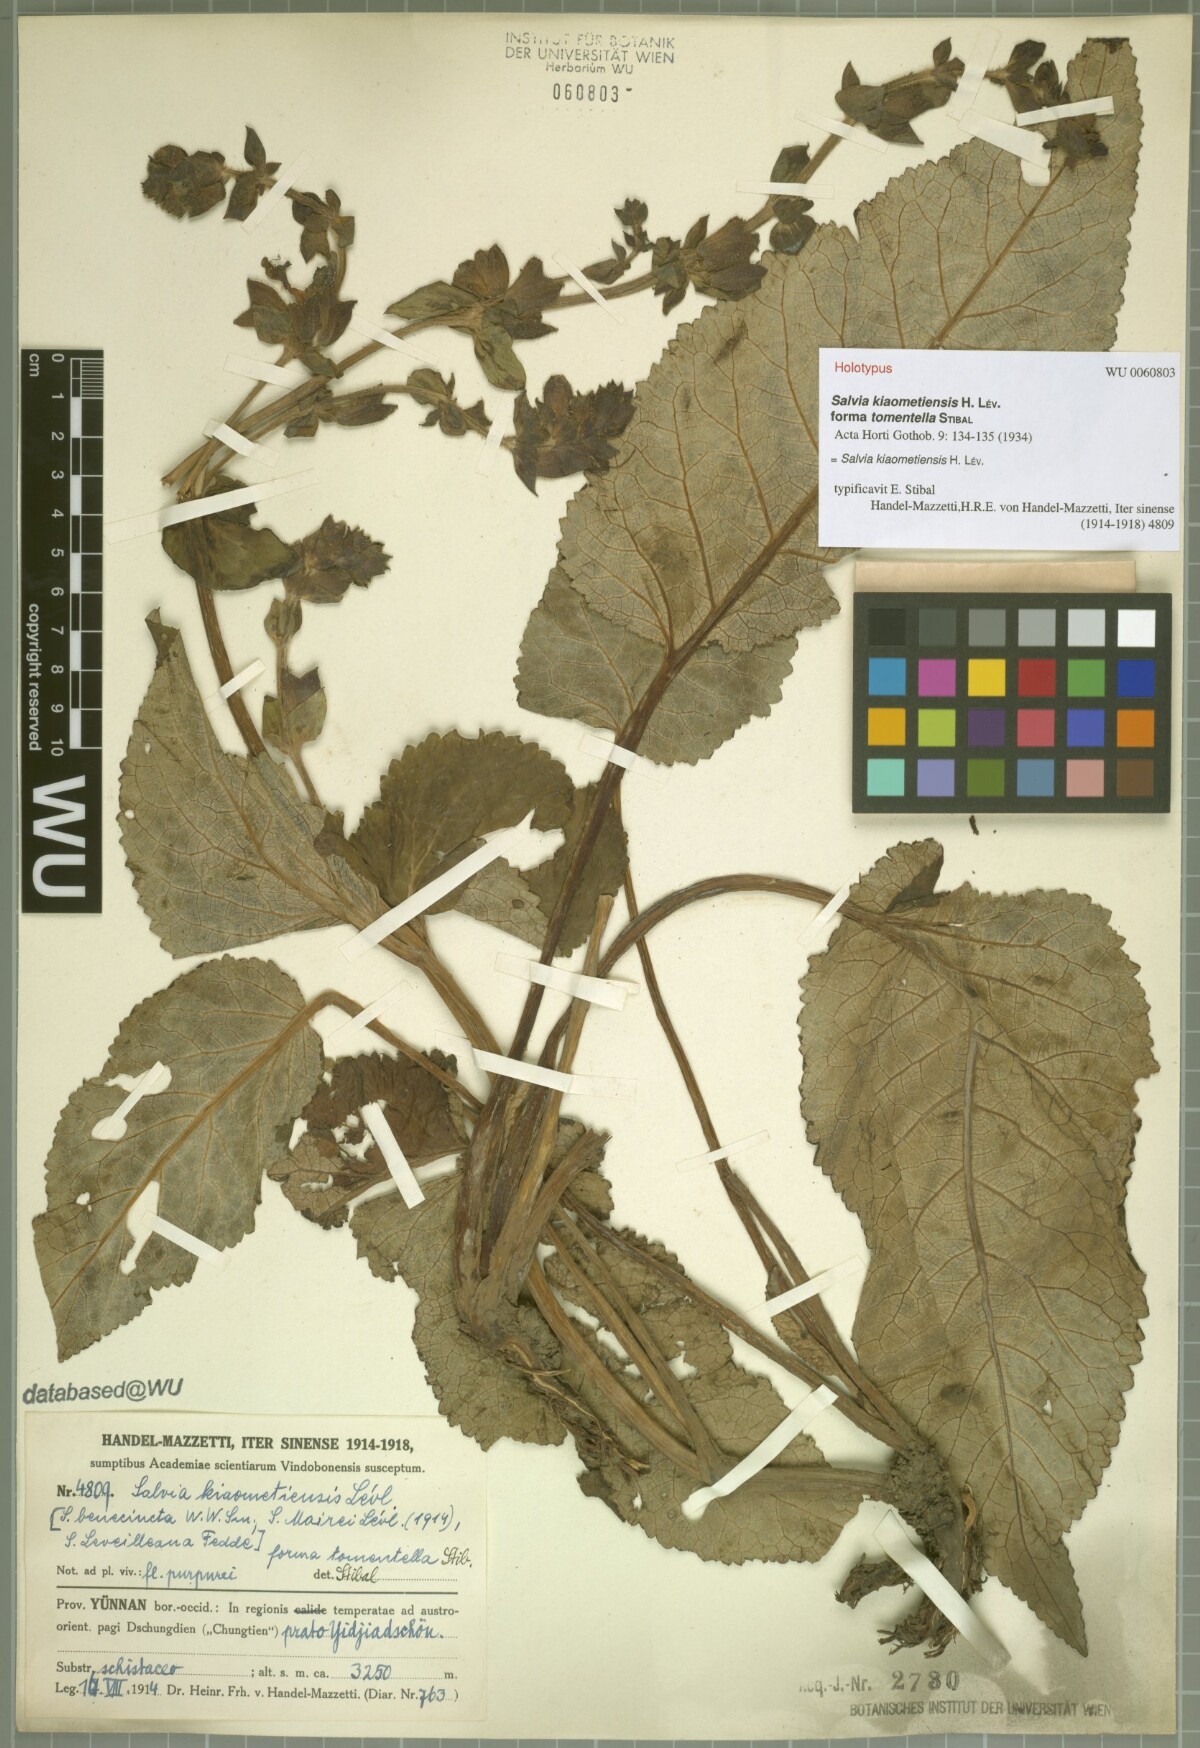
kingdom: Plantae
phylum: Tracheophyta
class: Magnoliopsida
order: Lamiales
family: Lamiaceae
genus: Salvia
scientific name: Salvia kiaometiensis
